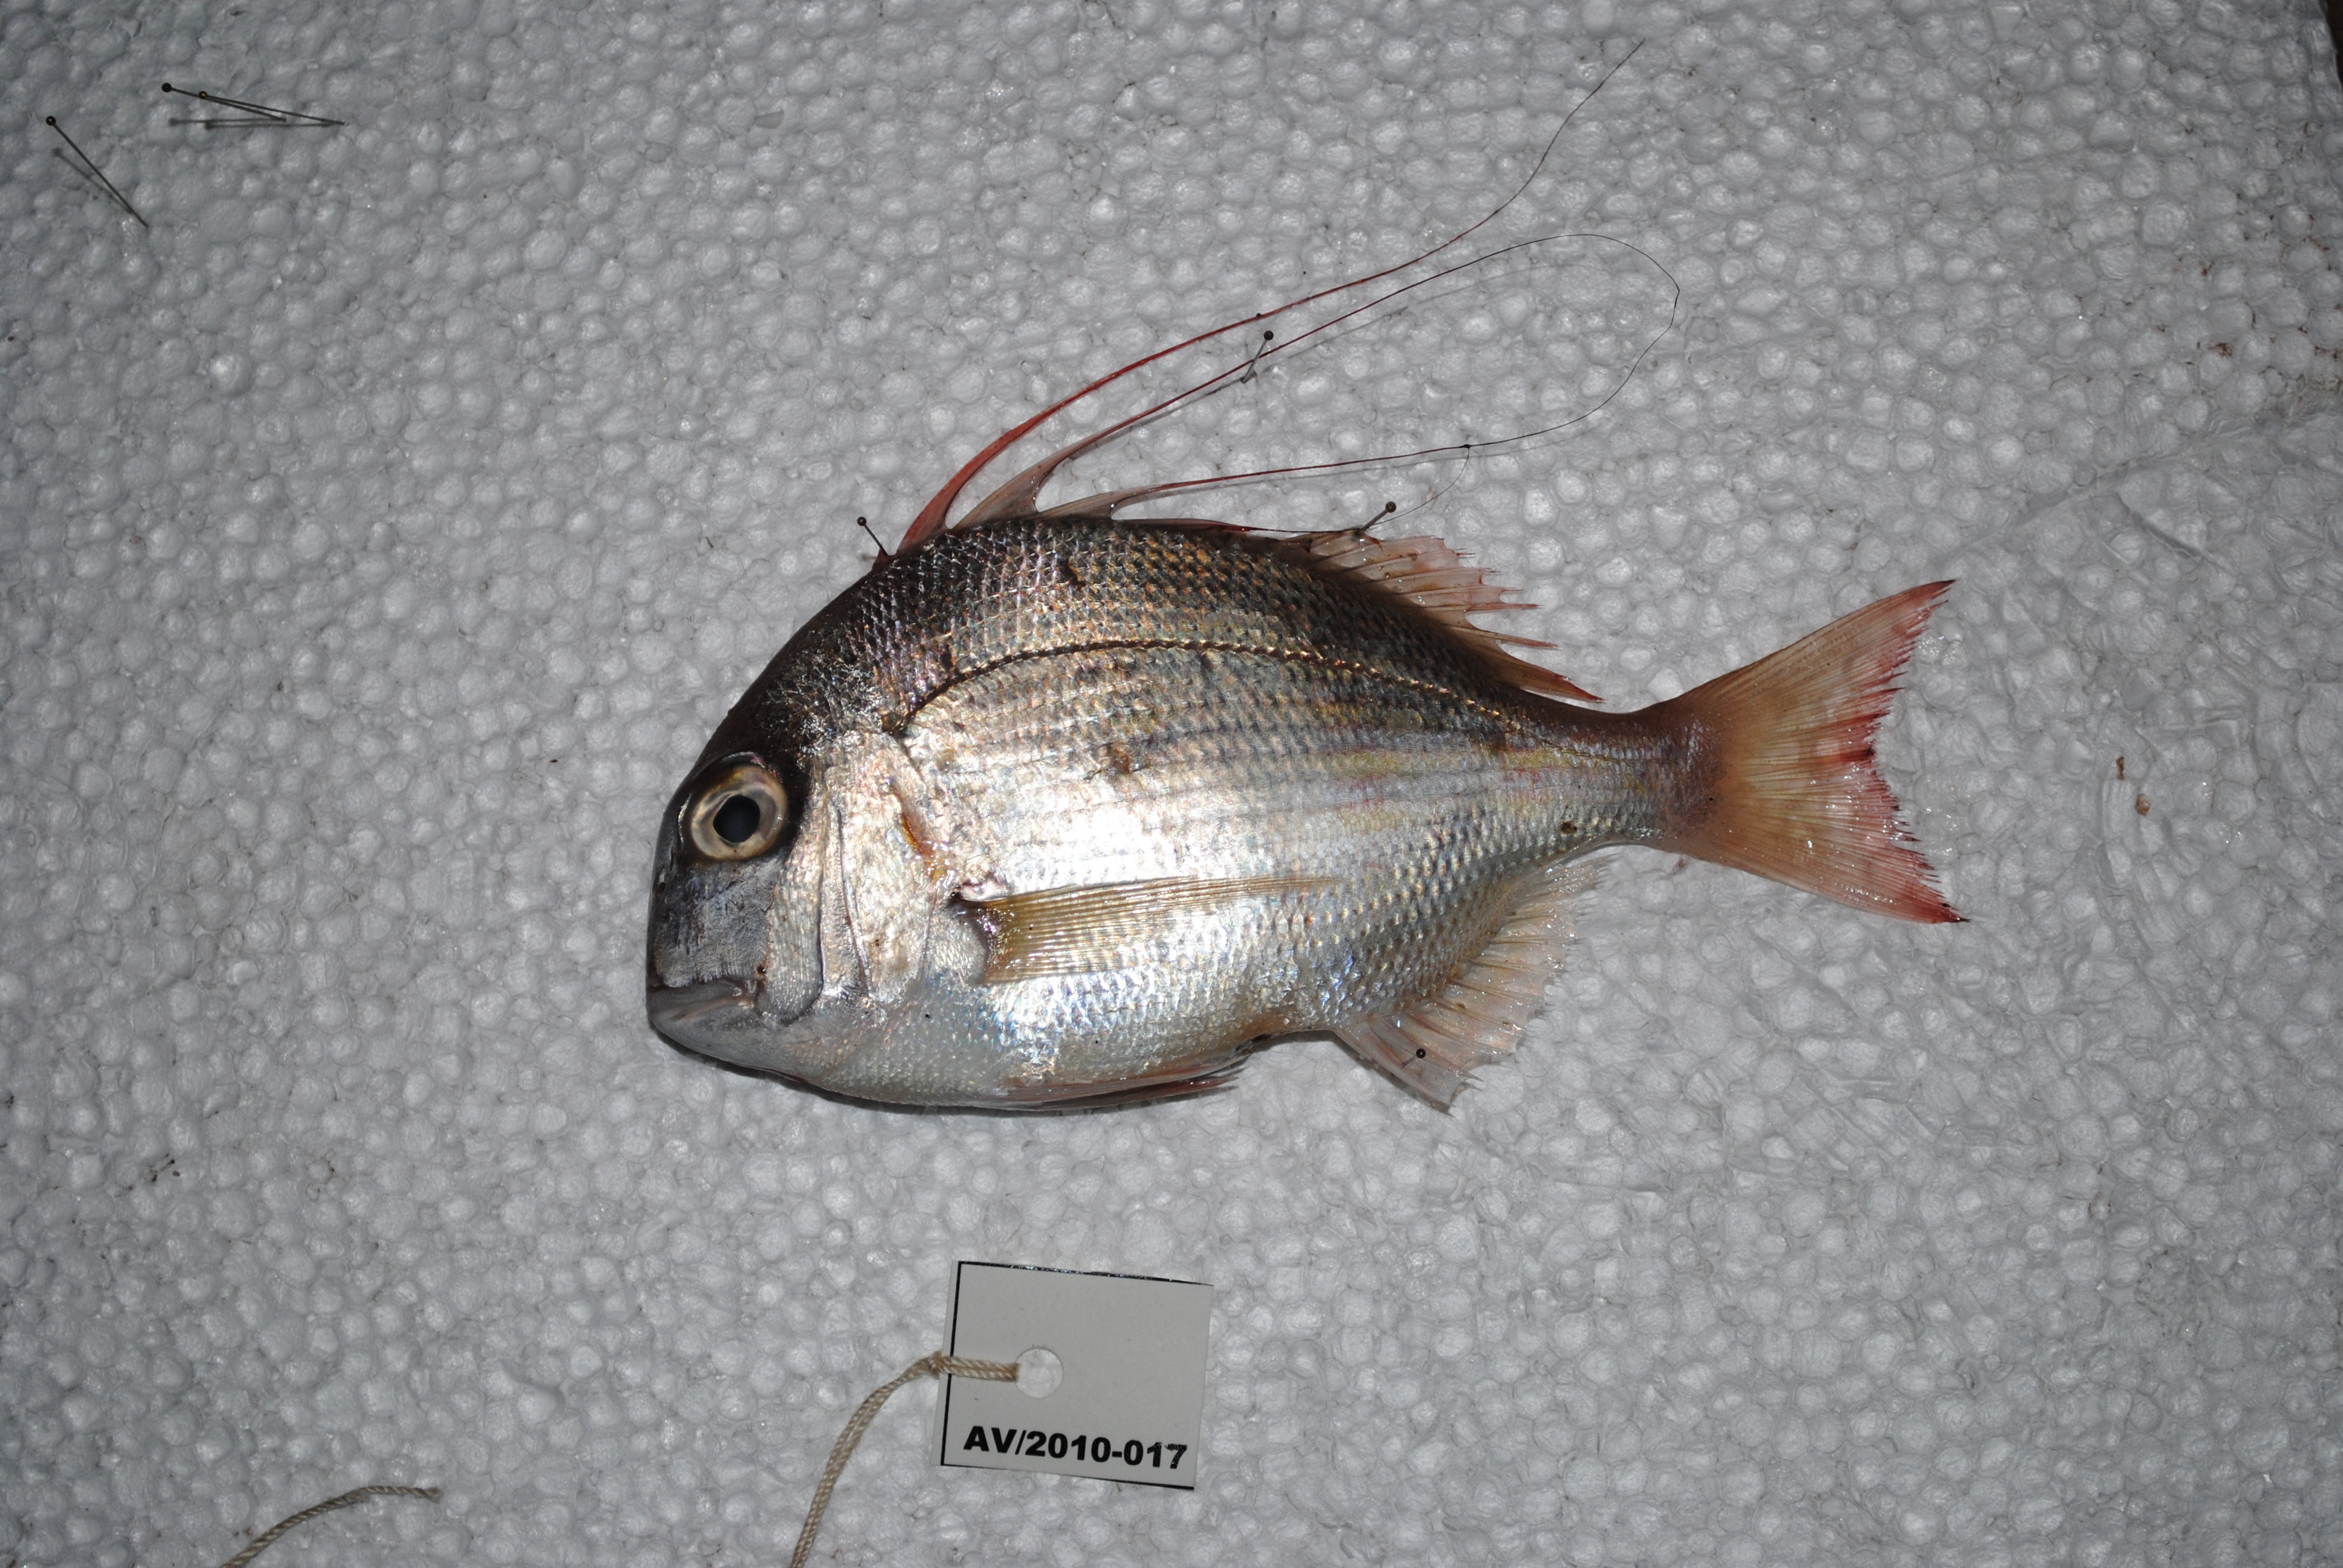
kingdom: Animalia
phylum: Chordata
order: Perciformes
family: Sparidae
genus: Argyrops
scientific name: Argyrops spinifer
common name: King soldier bream
